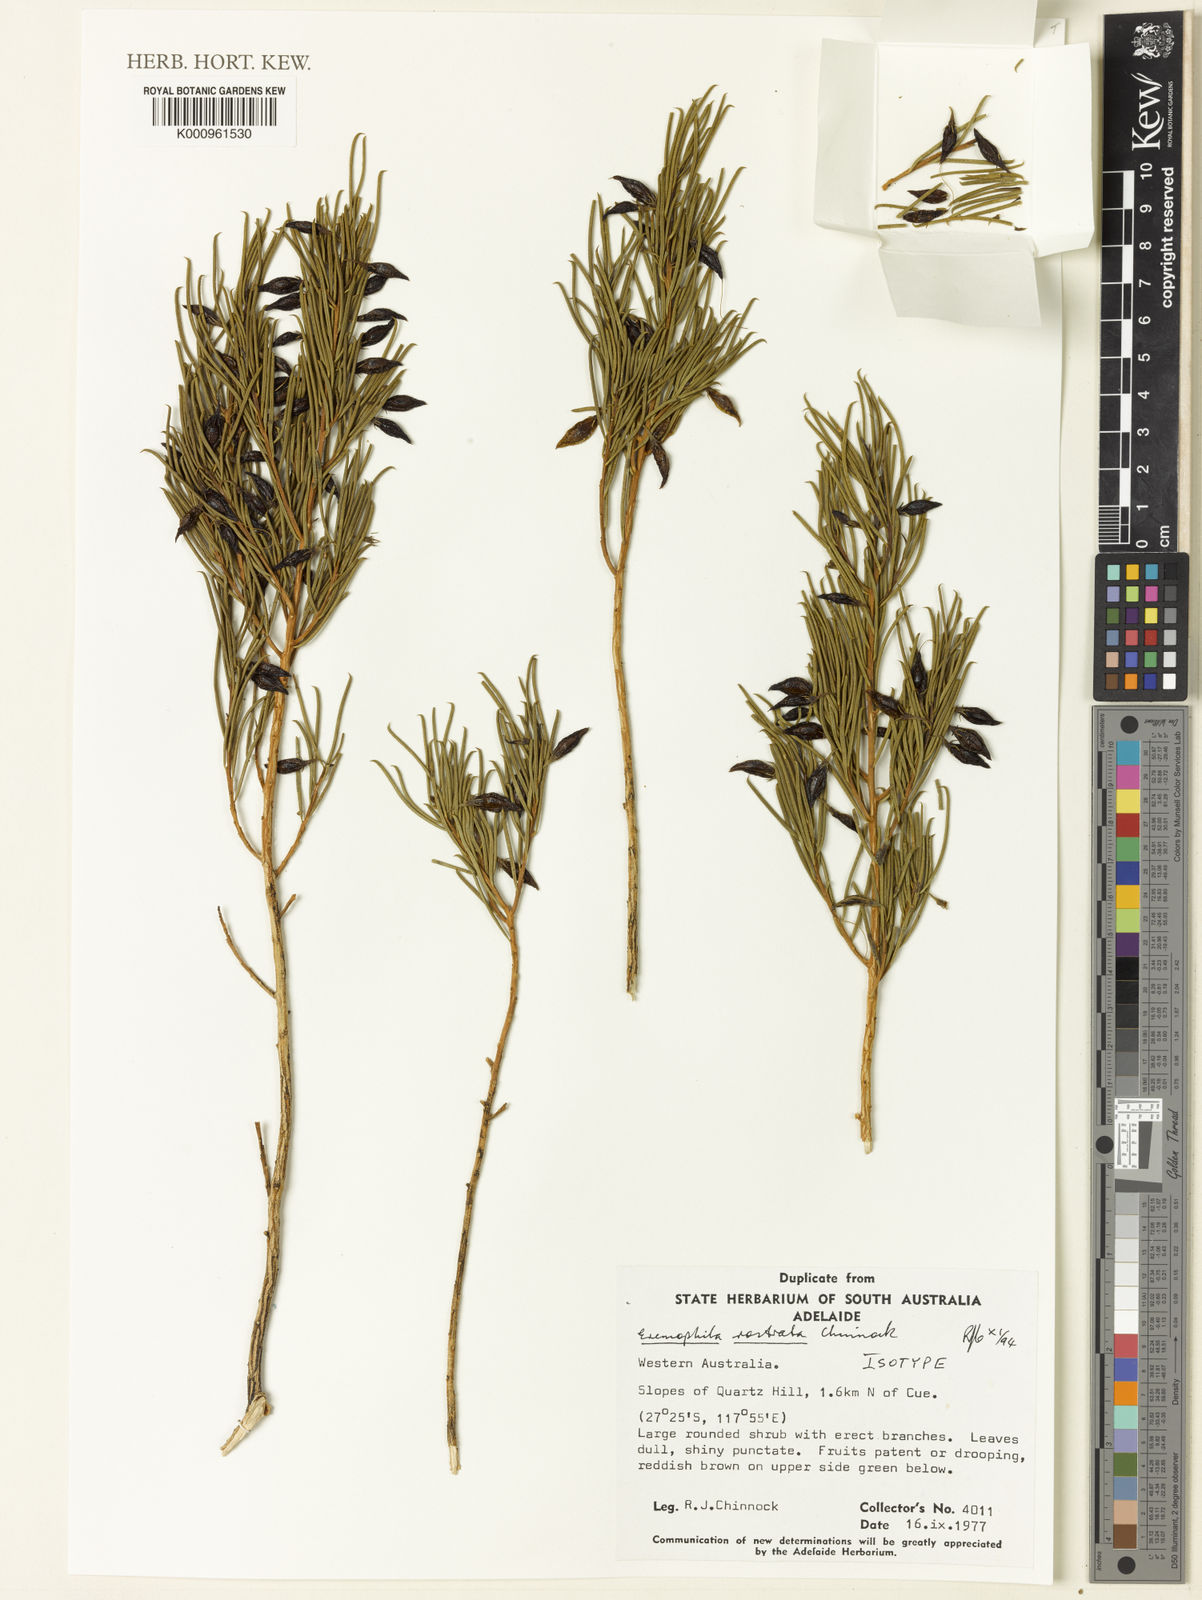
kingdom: Plantae
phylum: Tracheophyta
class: Magnoliopsida
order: Lamiales
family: Scrophulariaceae
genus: Eremophila
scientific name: Eremophila rostrata
